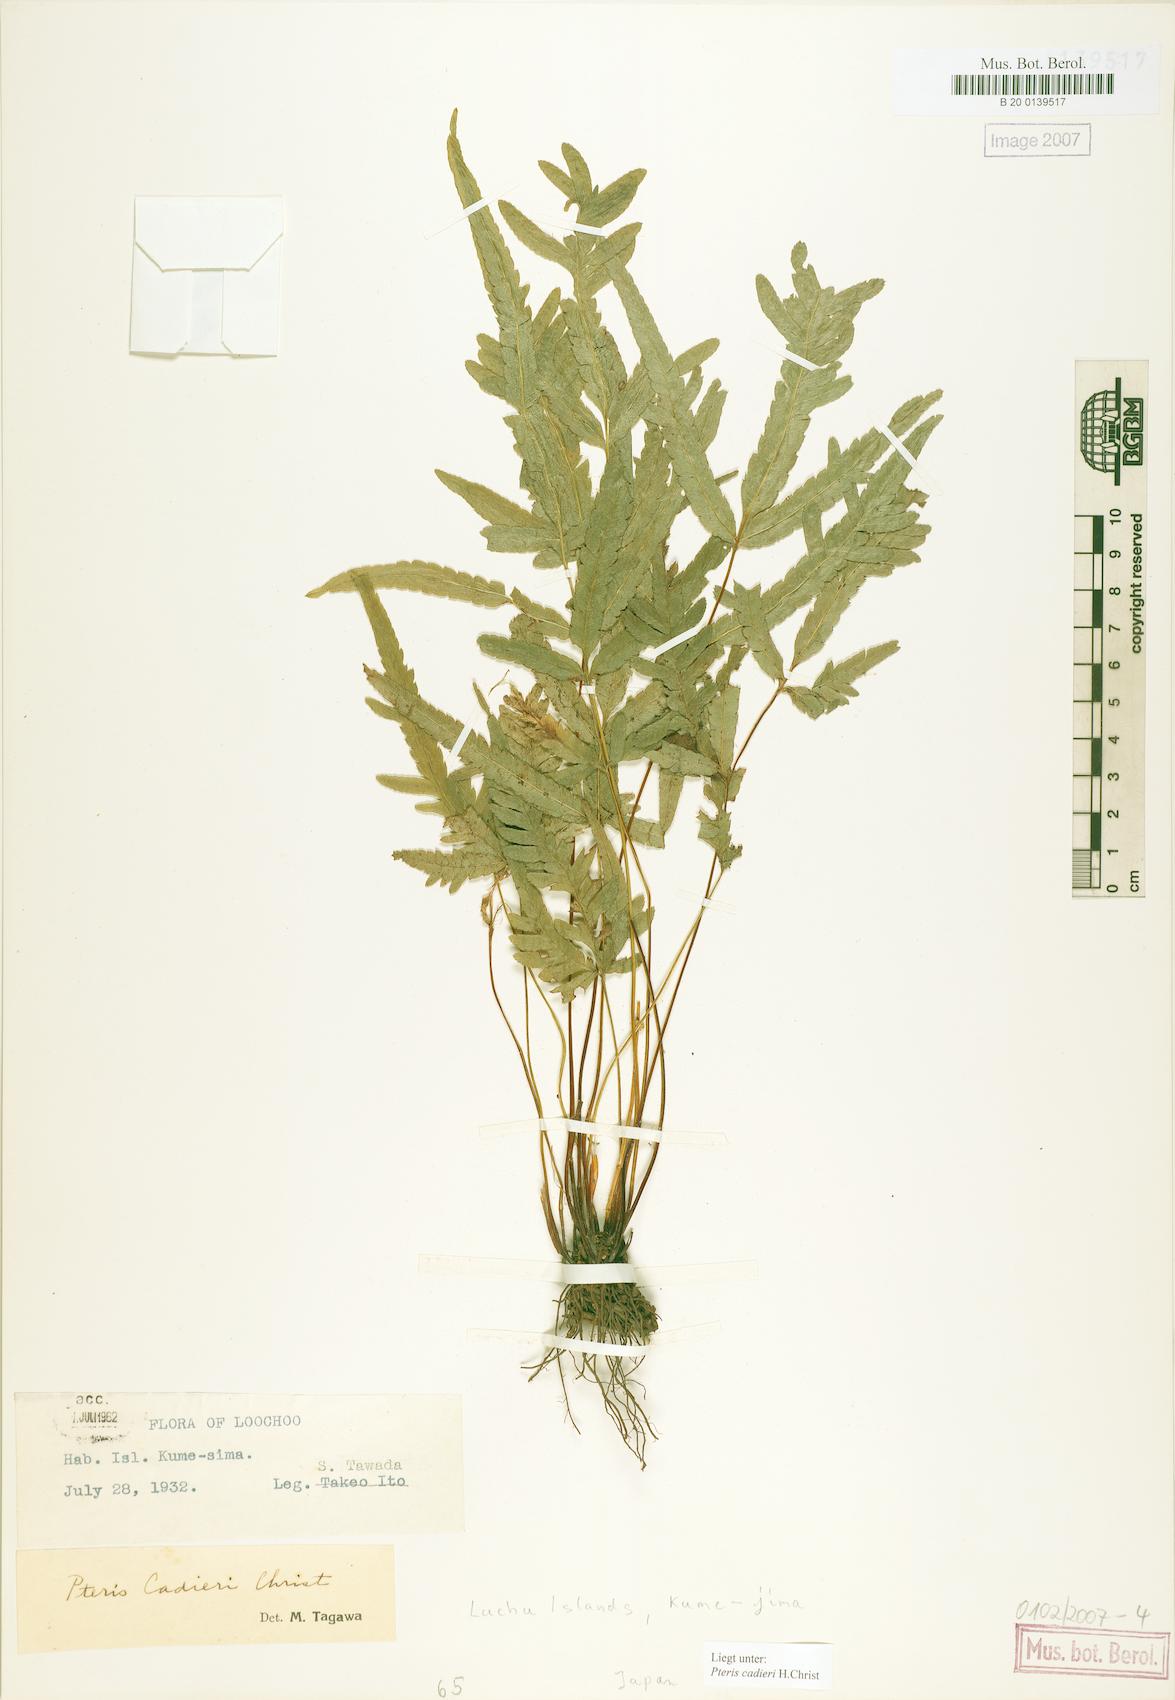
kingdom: Plantae
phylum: Tracheophyta
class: Polypodiopsida
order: Polypodiales
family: Pteridaceae
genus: Pteris
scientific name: Pteris cadieri
